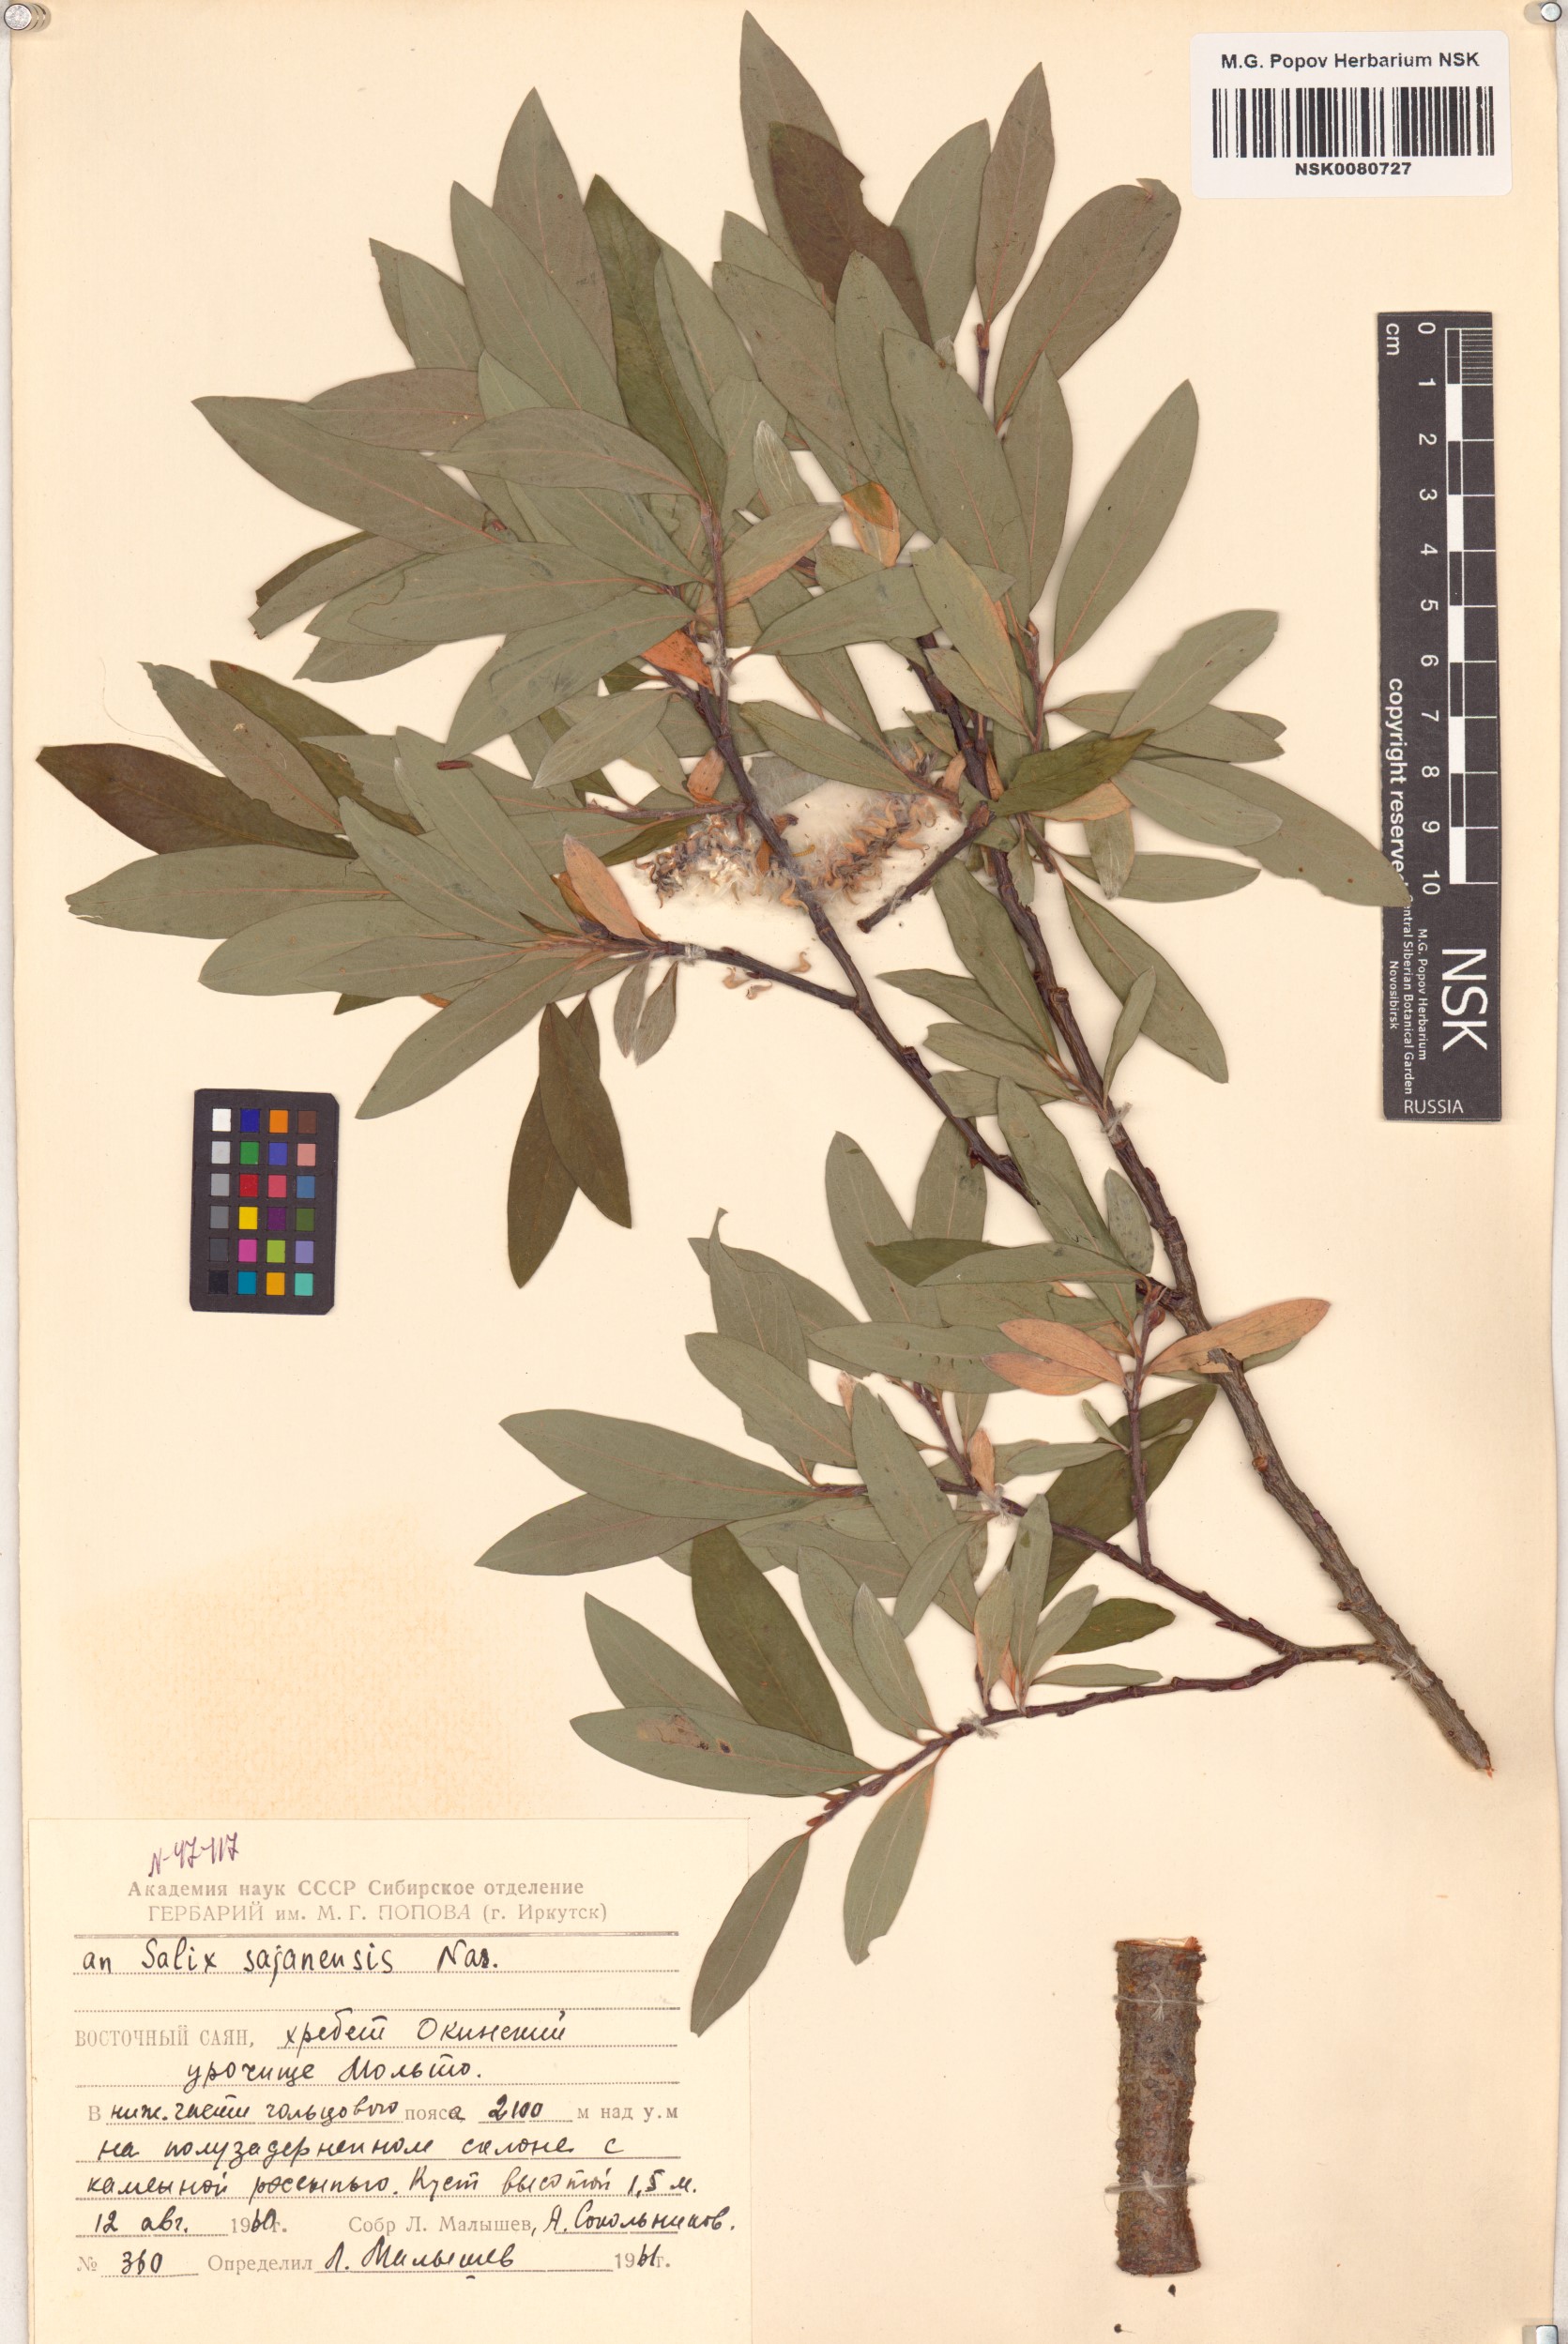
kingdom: Plantae
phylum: Tracheophyta
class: Magnoliopsida
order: Malpighiales
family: Salicaceae
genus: Salix
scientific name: Salix sajanensis
